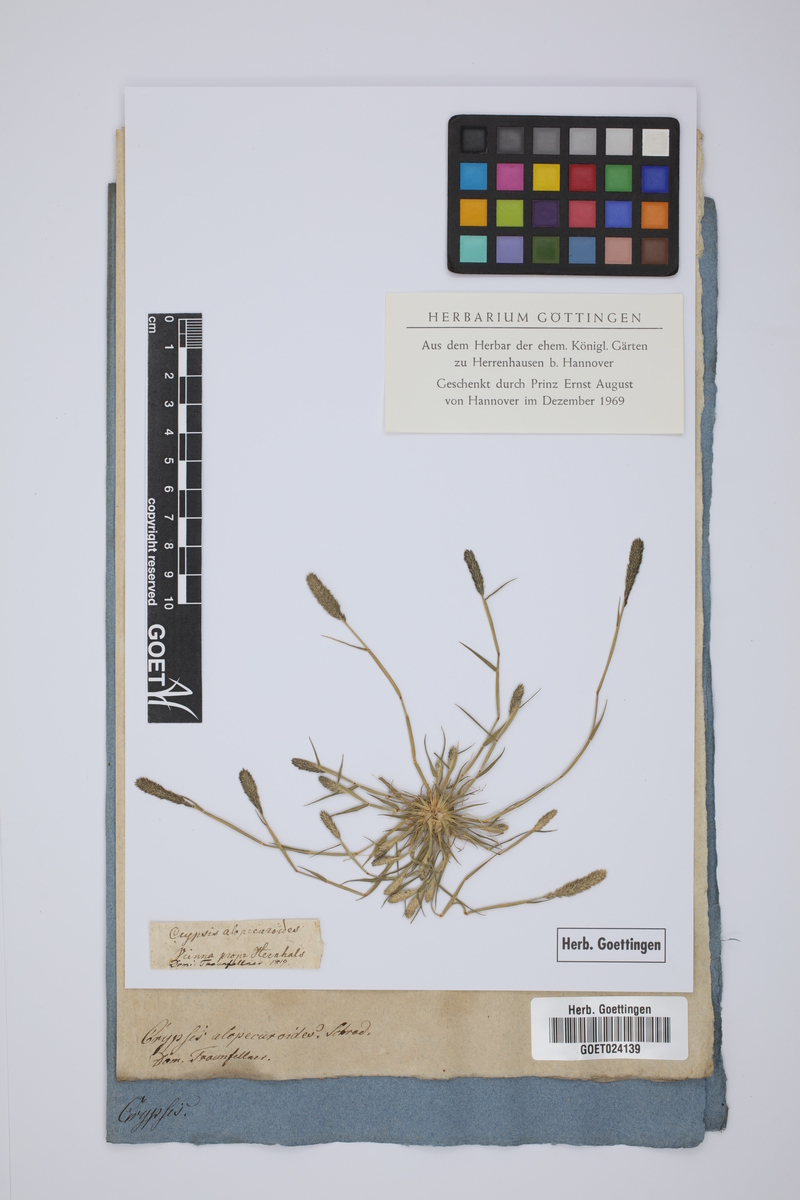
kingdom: Plantae
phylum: Tracheophyta
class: Liliopsida
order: Poales
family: Poaceae
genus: Sporobolus
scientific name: Sporobolus alopecuroides
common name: Foxtail pricklegrass
